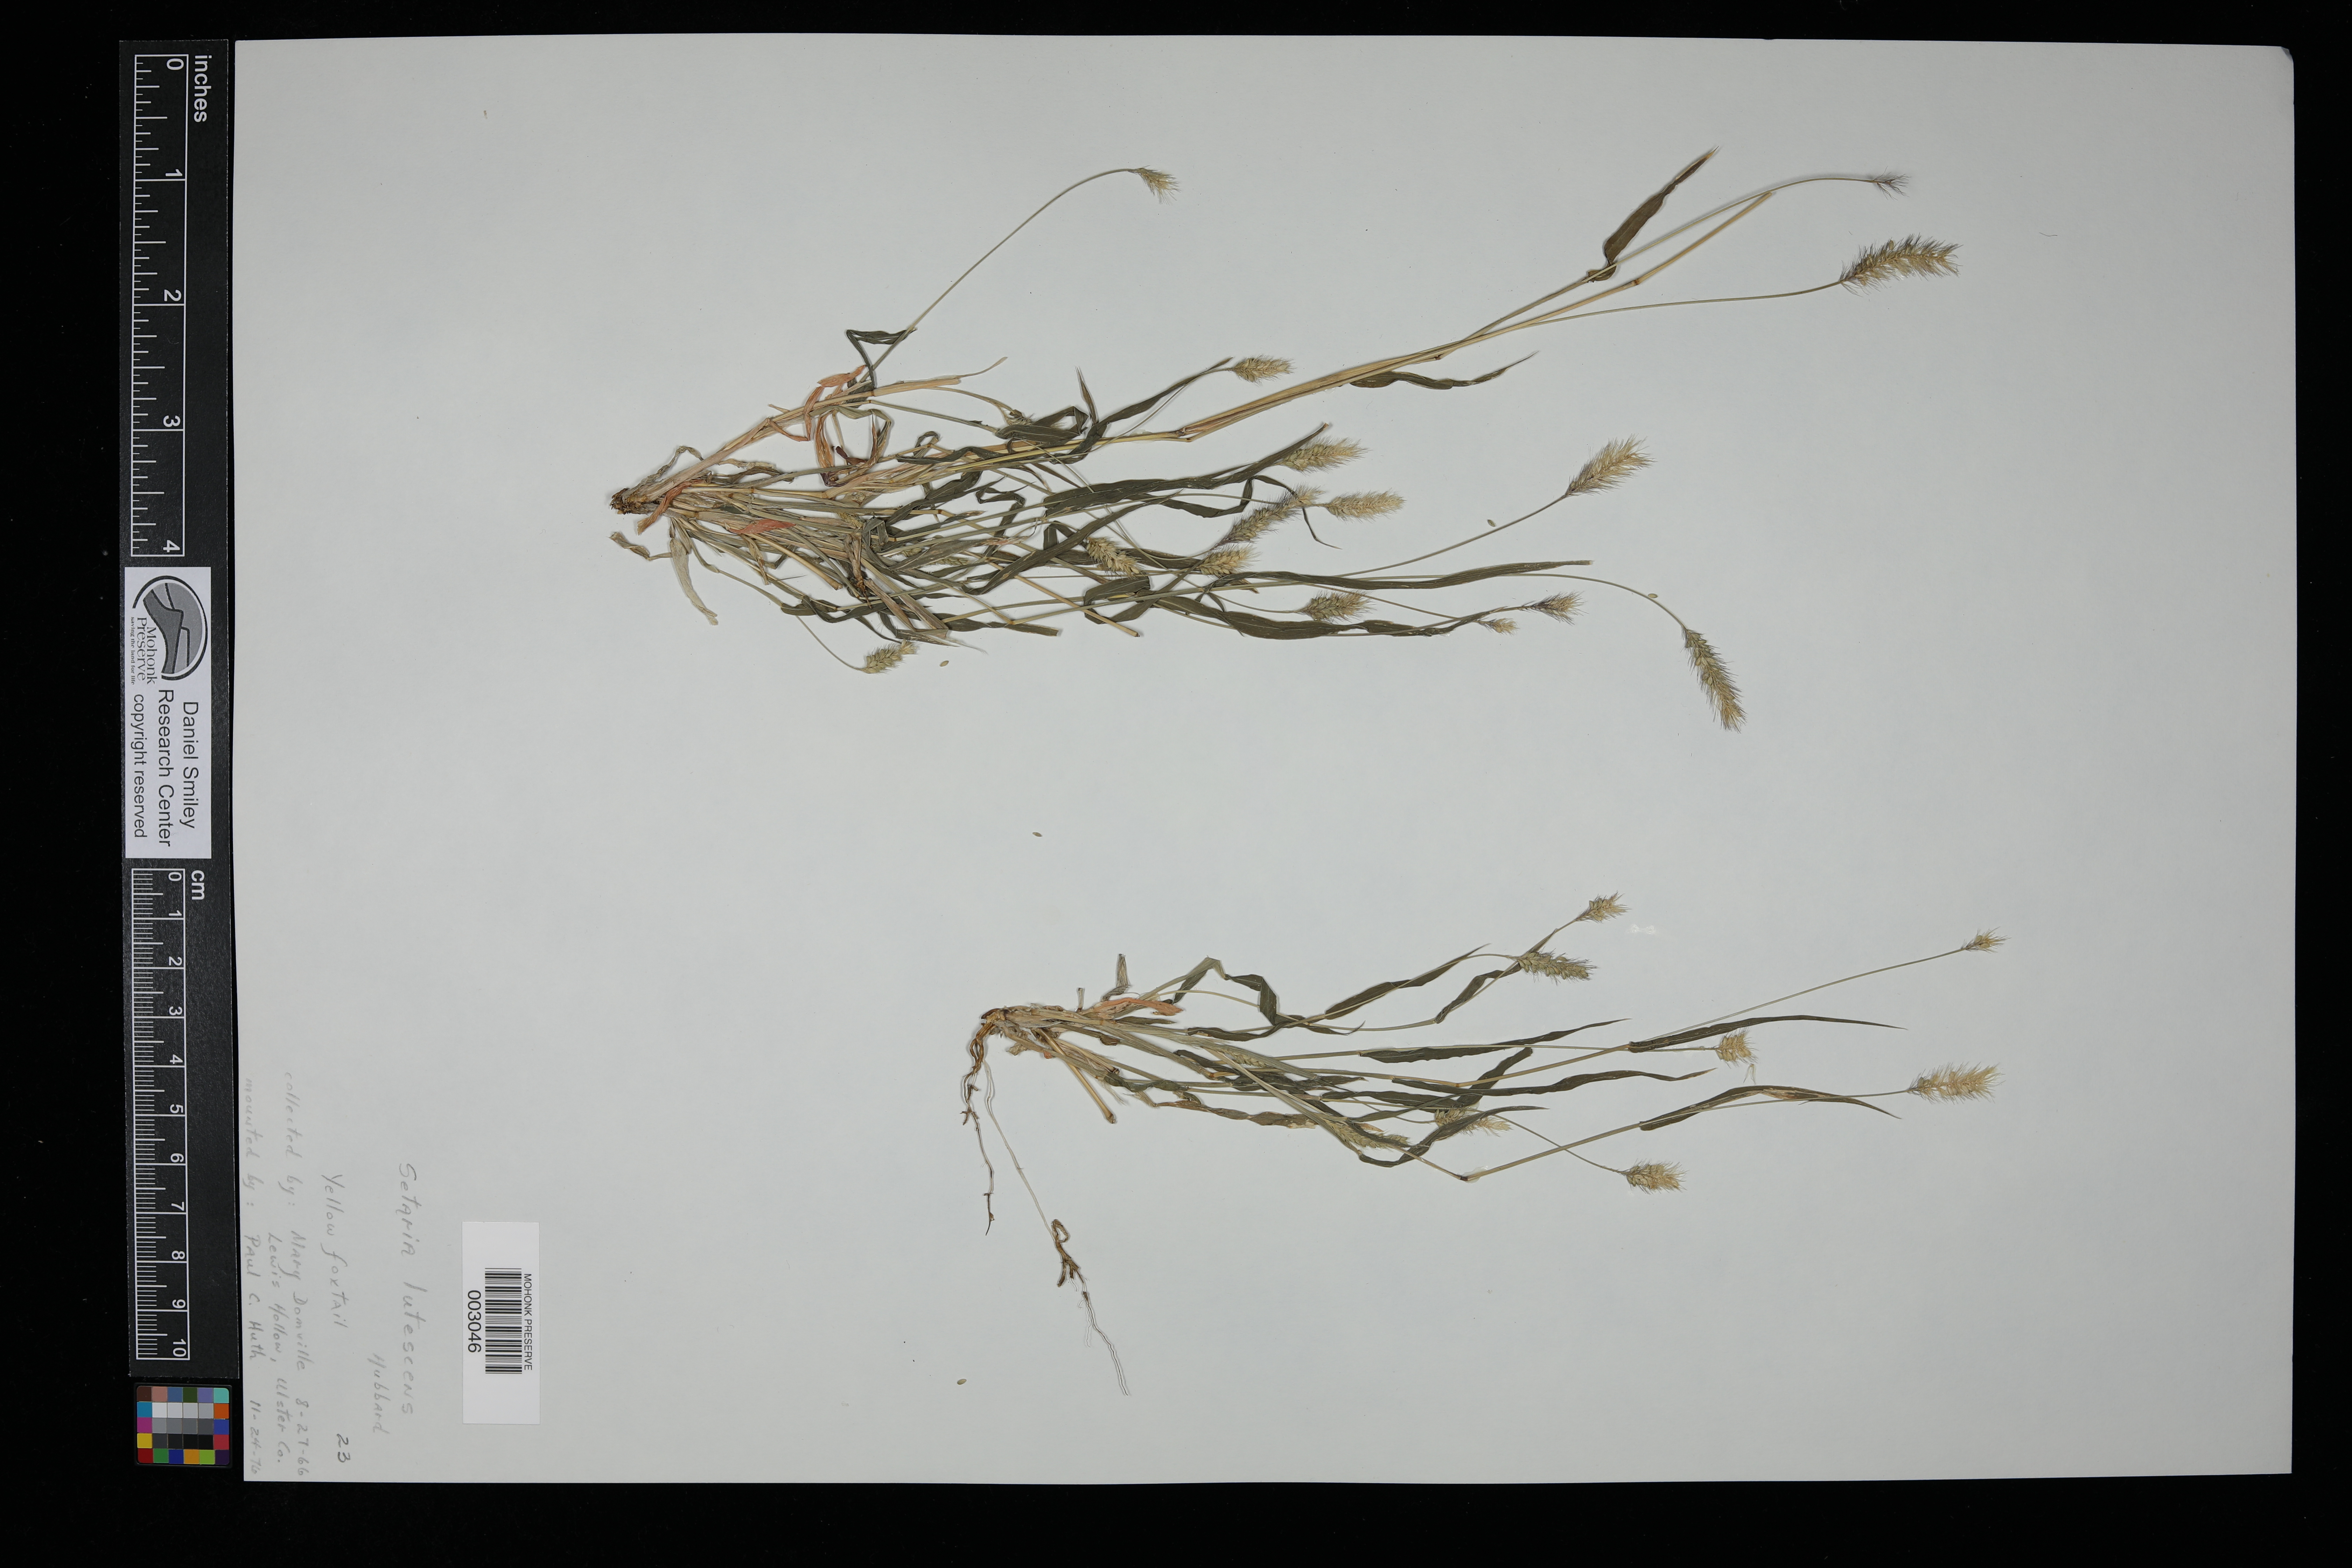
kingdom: Plantae
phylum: Tracheophyta
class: Liliopsida
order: Poales
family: Poaceae
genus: Cenchrus
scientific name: Cenchrus americanus
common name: Pearl millet
